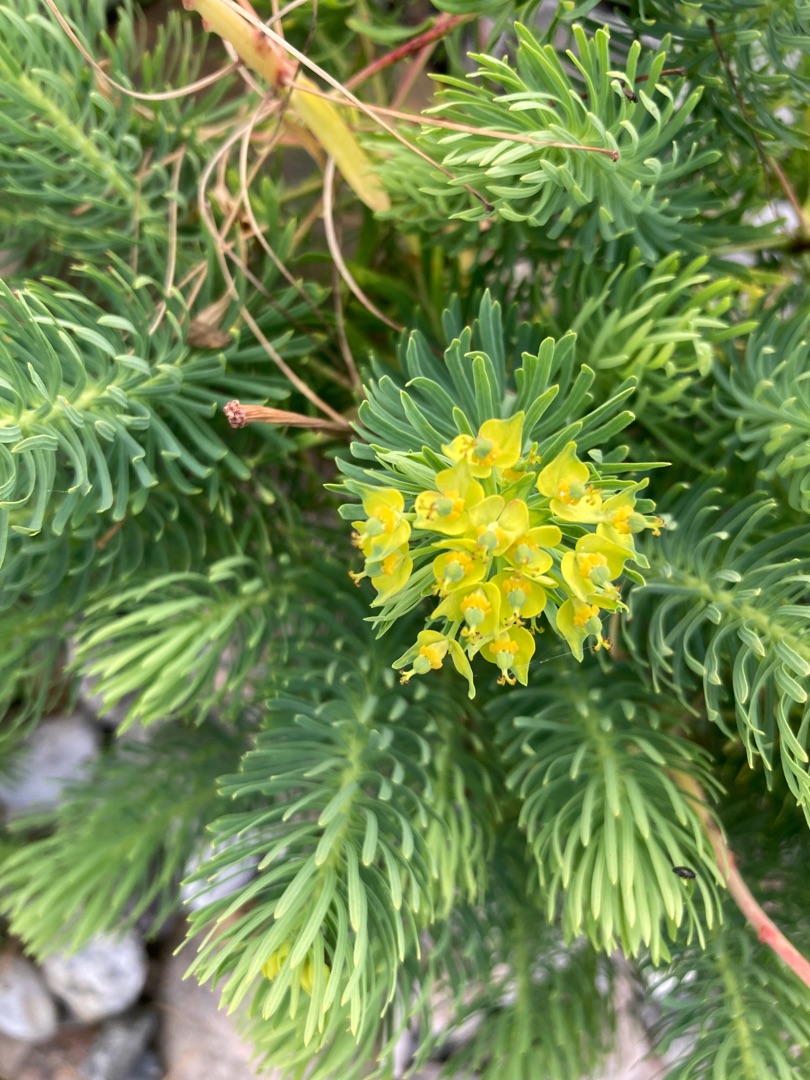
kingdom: Plantae
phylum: Tracheophyta
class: Magnoliopsida
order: Malpighiales
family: Euphorbiaceae
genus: Euphorbia
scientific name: Euphorbia cyparissias
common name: Cypres-vortemælk
